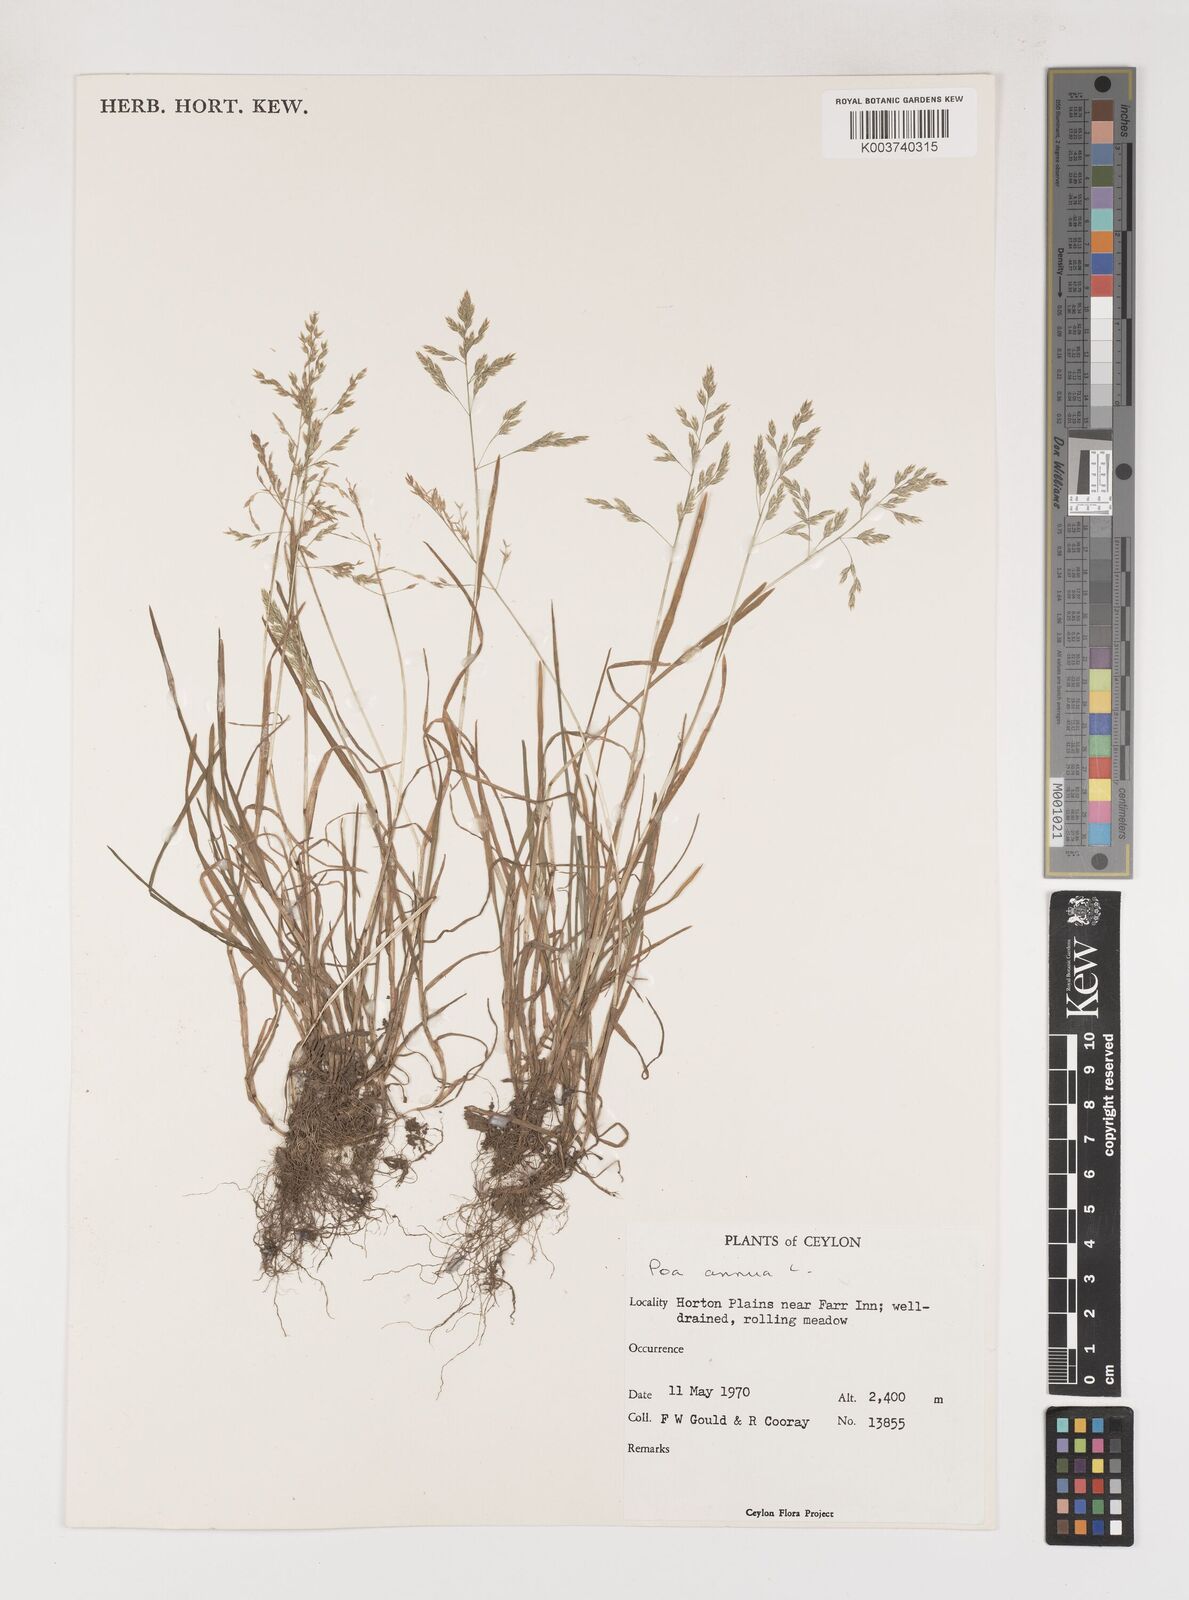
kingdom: Plantae
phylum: Tracheophyta
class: Liliopsida
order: Poales
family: Poaceae
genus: Poa
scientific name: Poa annua
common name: Annual bluegrass
